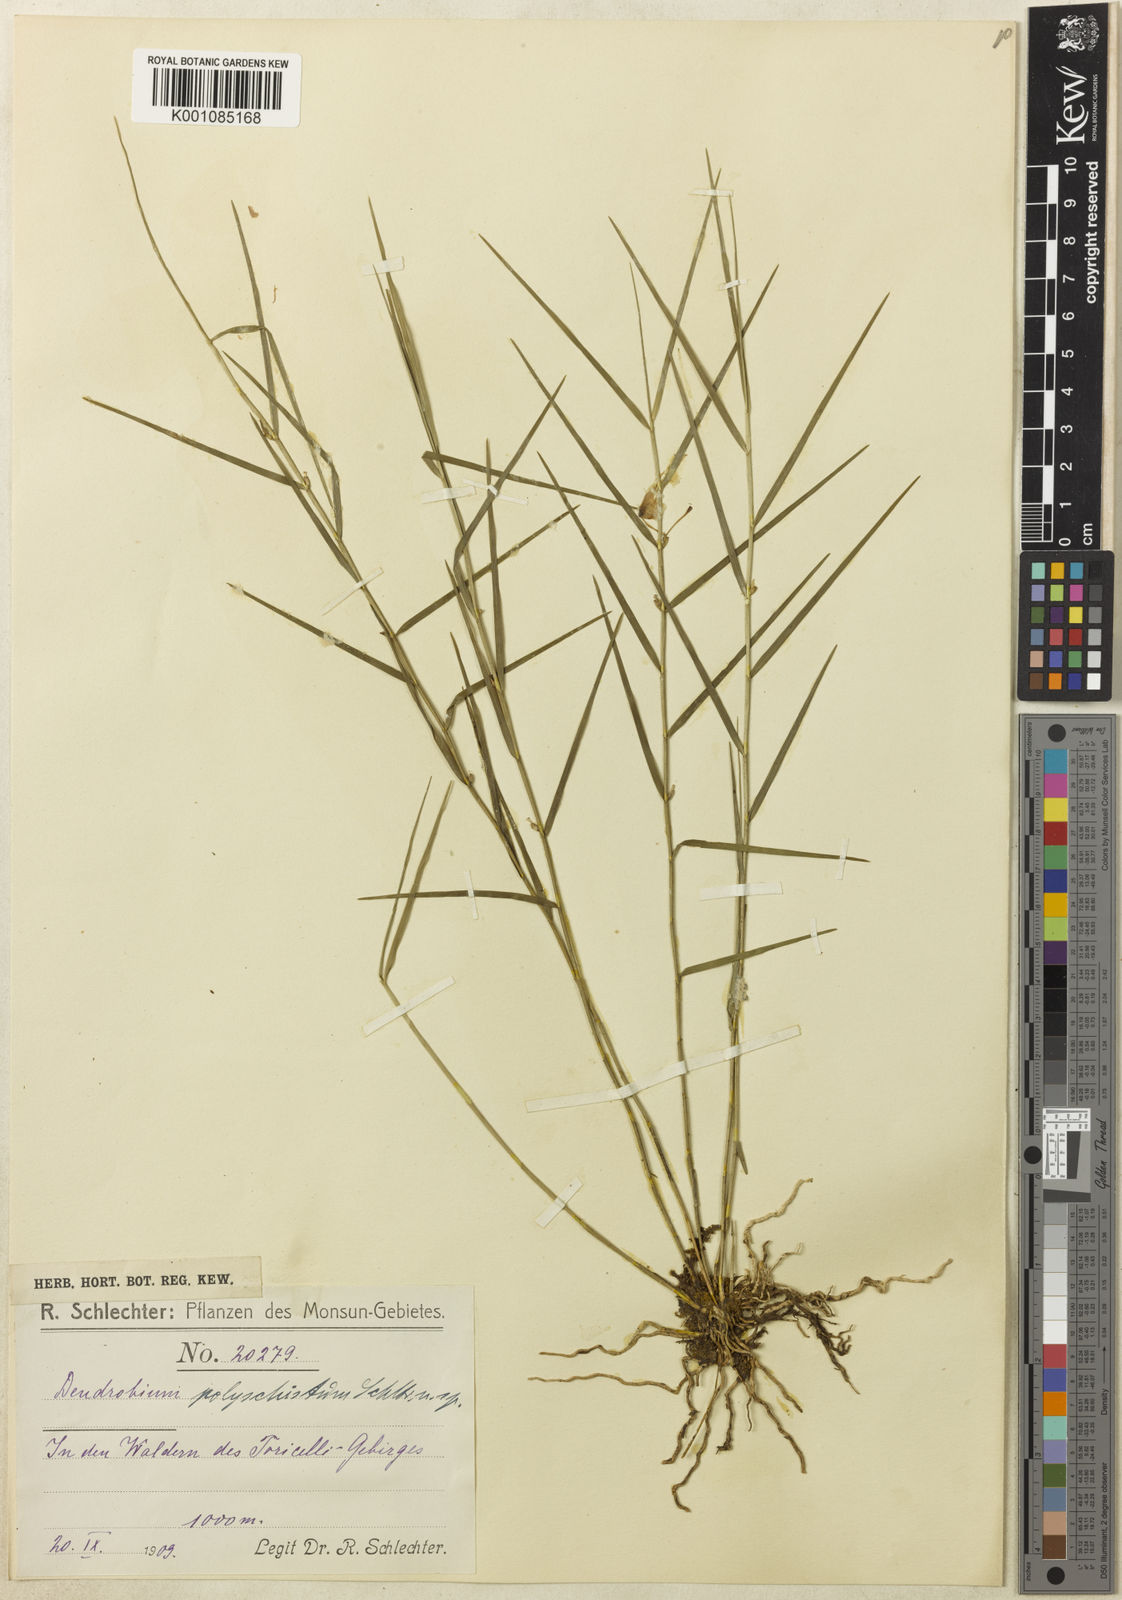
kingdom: Plantae
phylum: Tracheophyta
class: Liliopsida
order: Asparagales
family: Orchidaceae
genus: Dendrobium
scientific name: Dendrobium polyschistum
